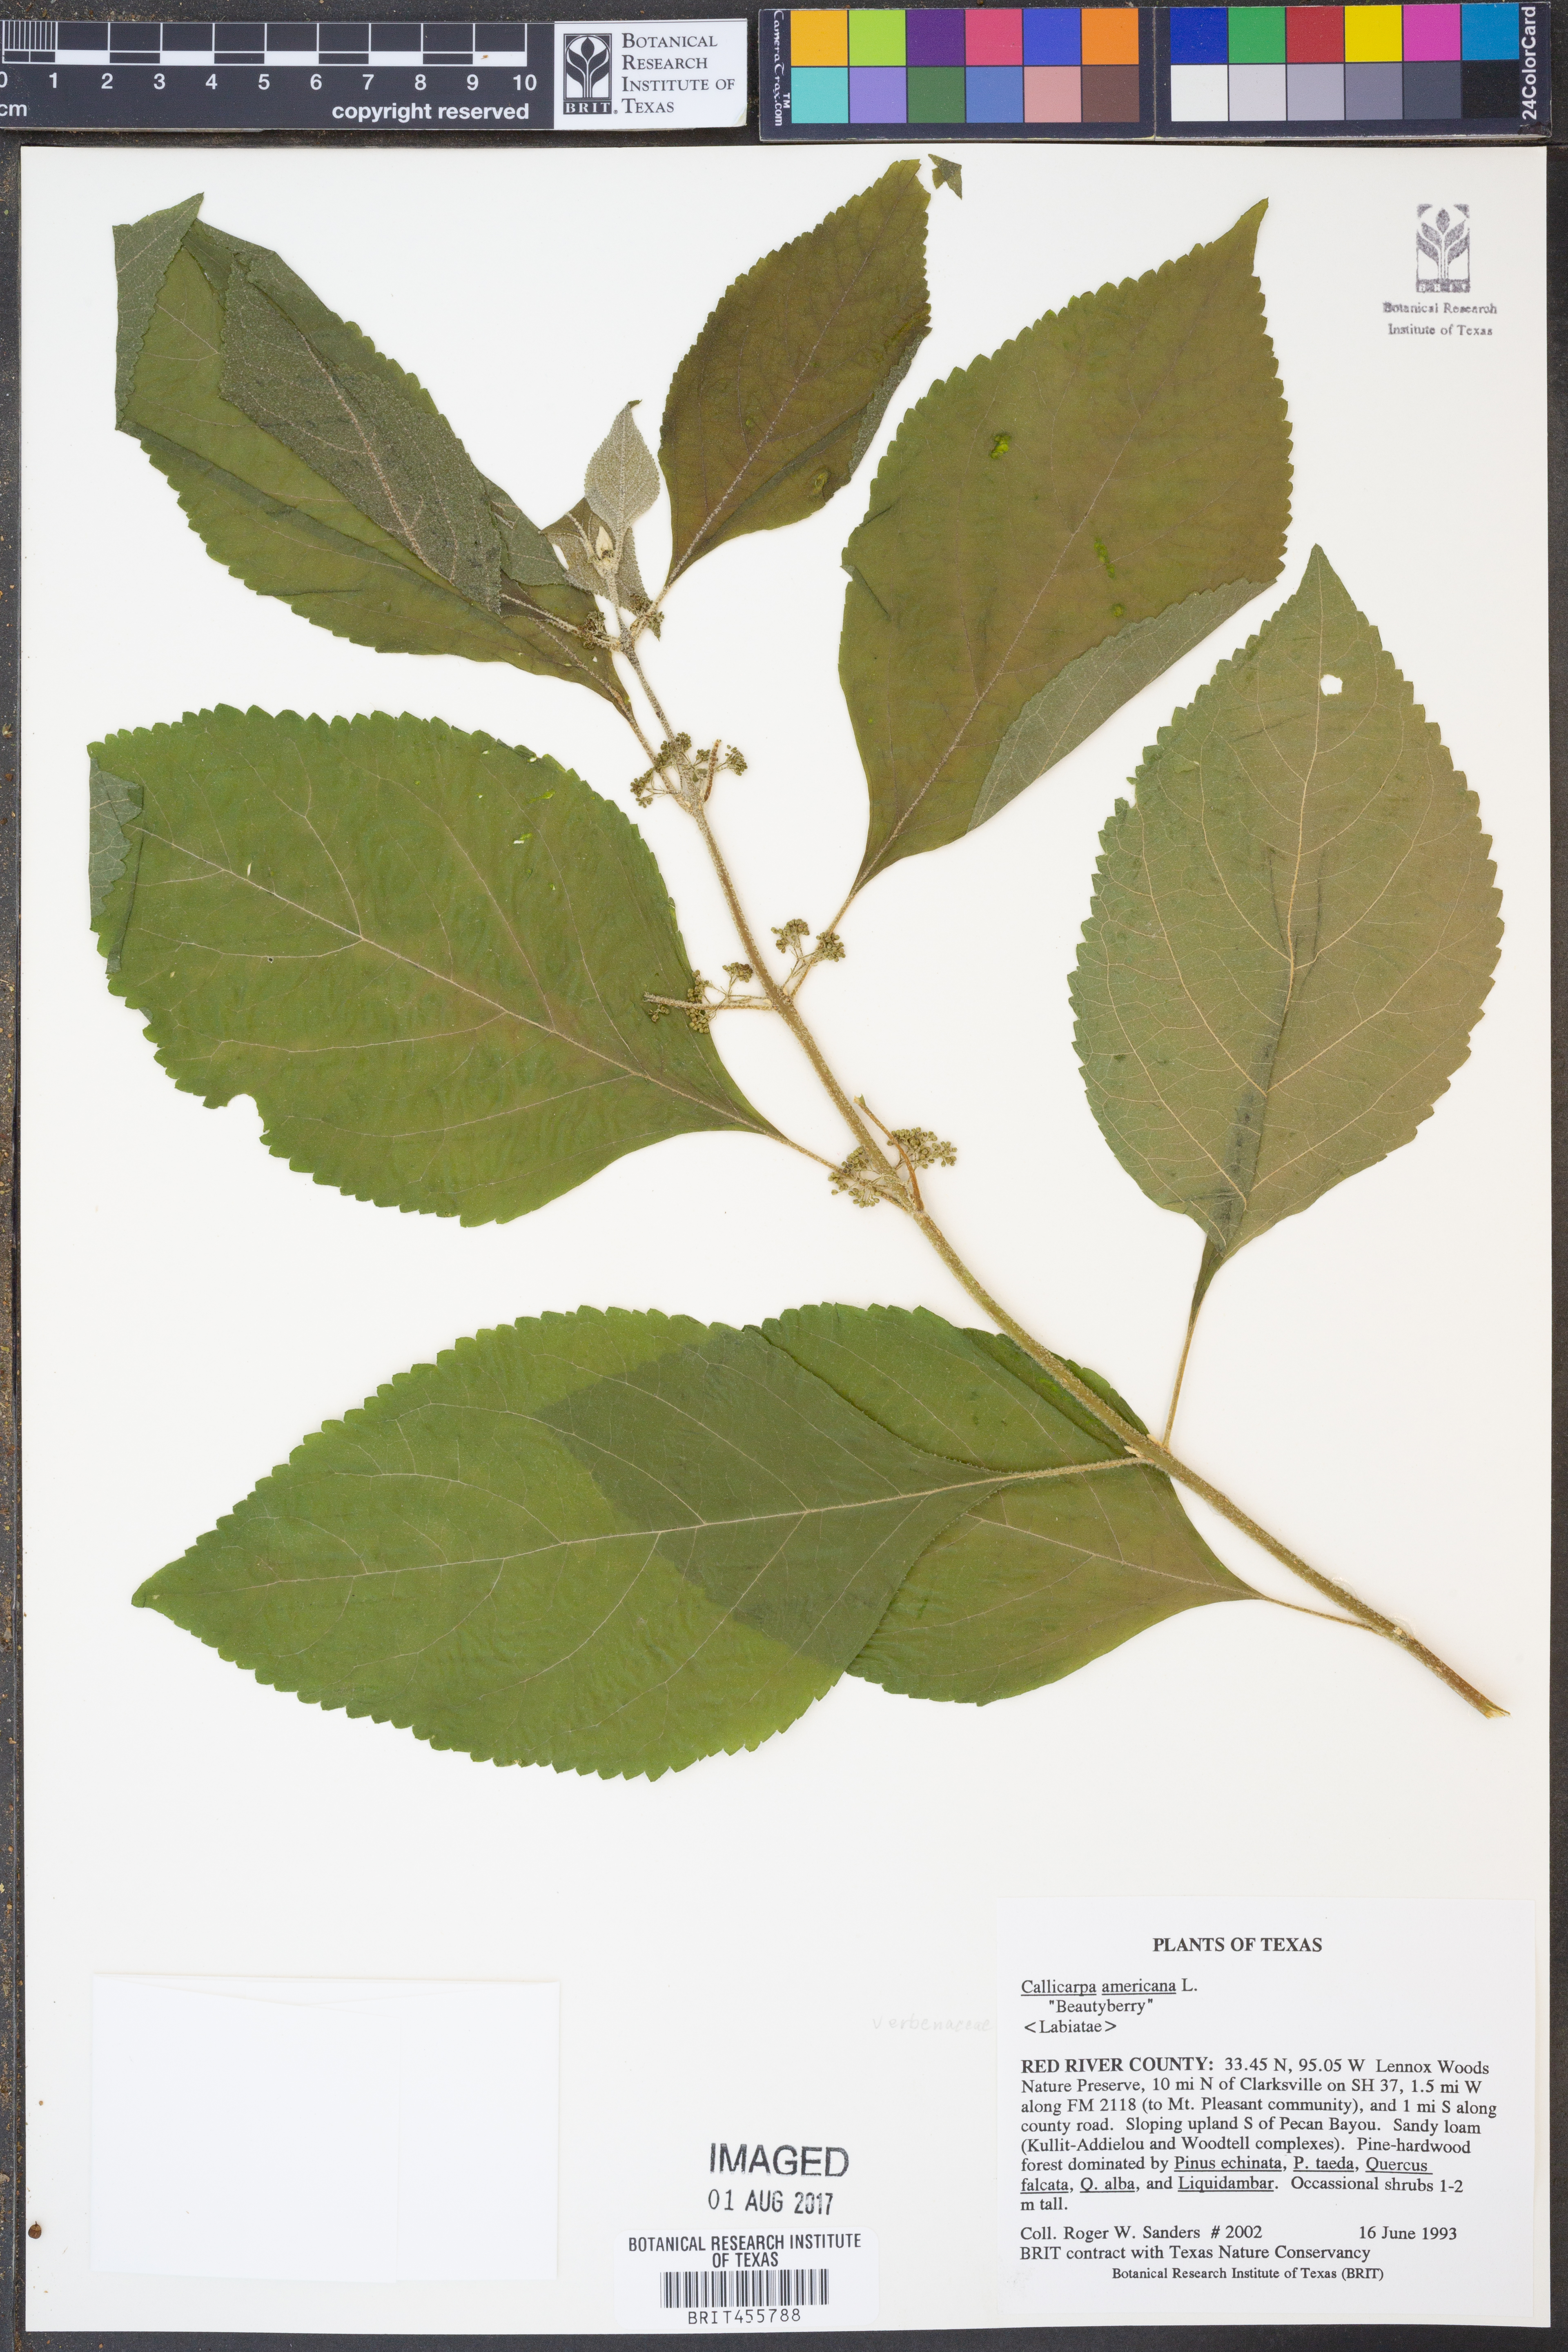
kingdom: Plantae
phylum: Tracheophyta
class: Magnoliopsida
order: Lamiales
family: Lamiaceae
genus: Callicarpa
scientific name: Callicarpa americana
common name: American beautyberry
